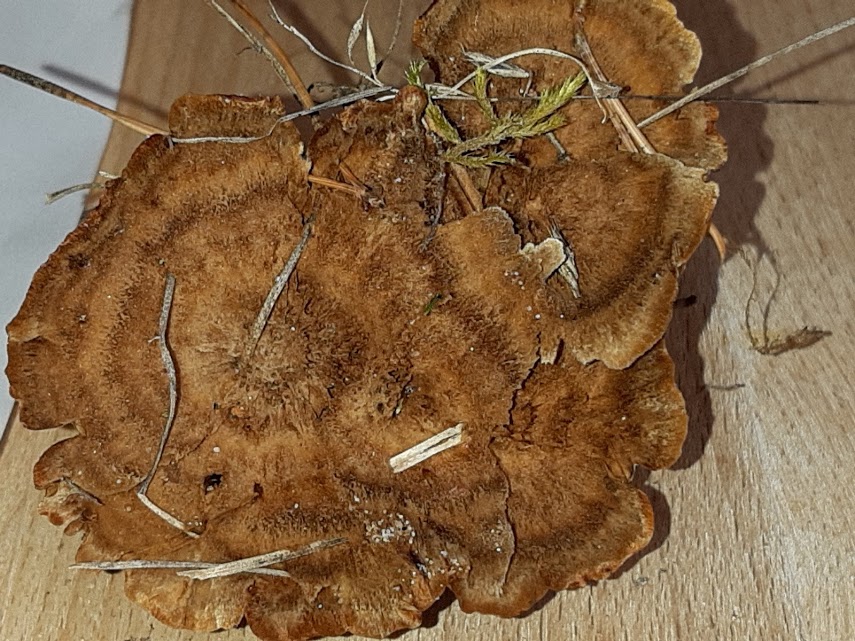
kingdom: Fungi
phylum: Basidiomycota
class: Agaricomycetes
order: Hymenochaetales
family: Hymenochaetaceae
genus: Coltricia
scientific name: Coltricia perennis
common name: almindelig sandporesvamp
